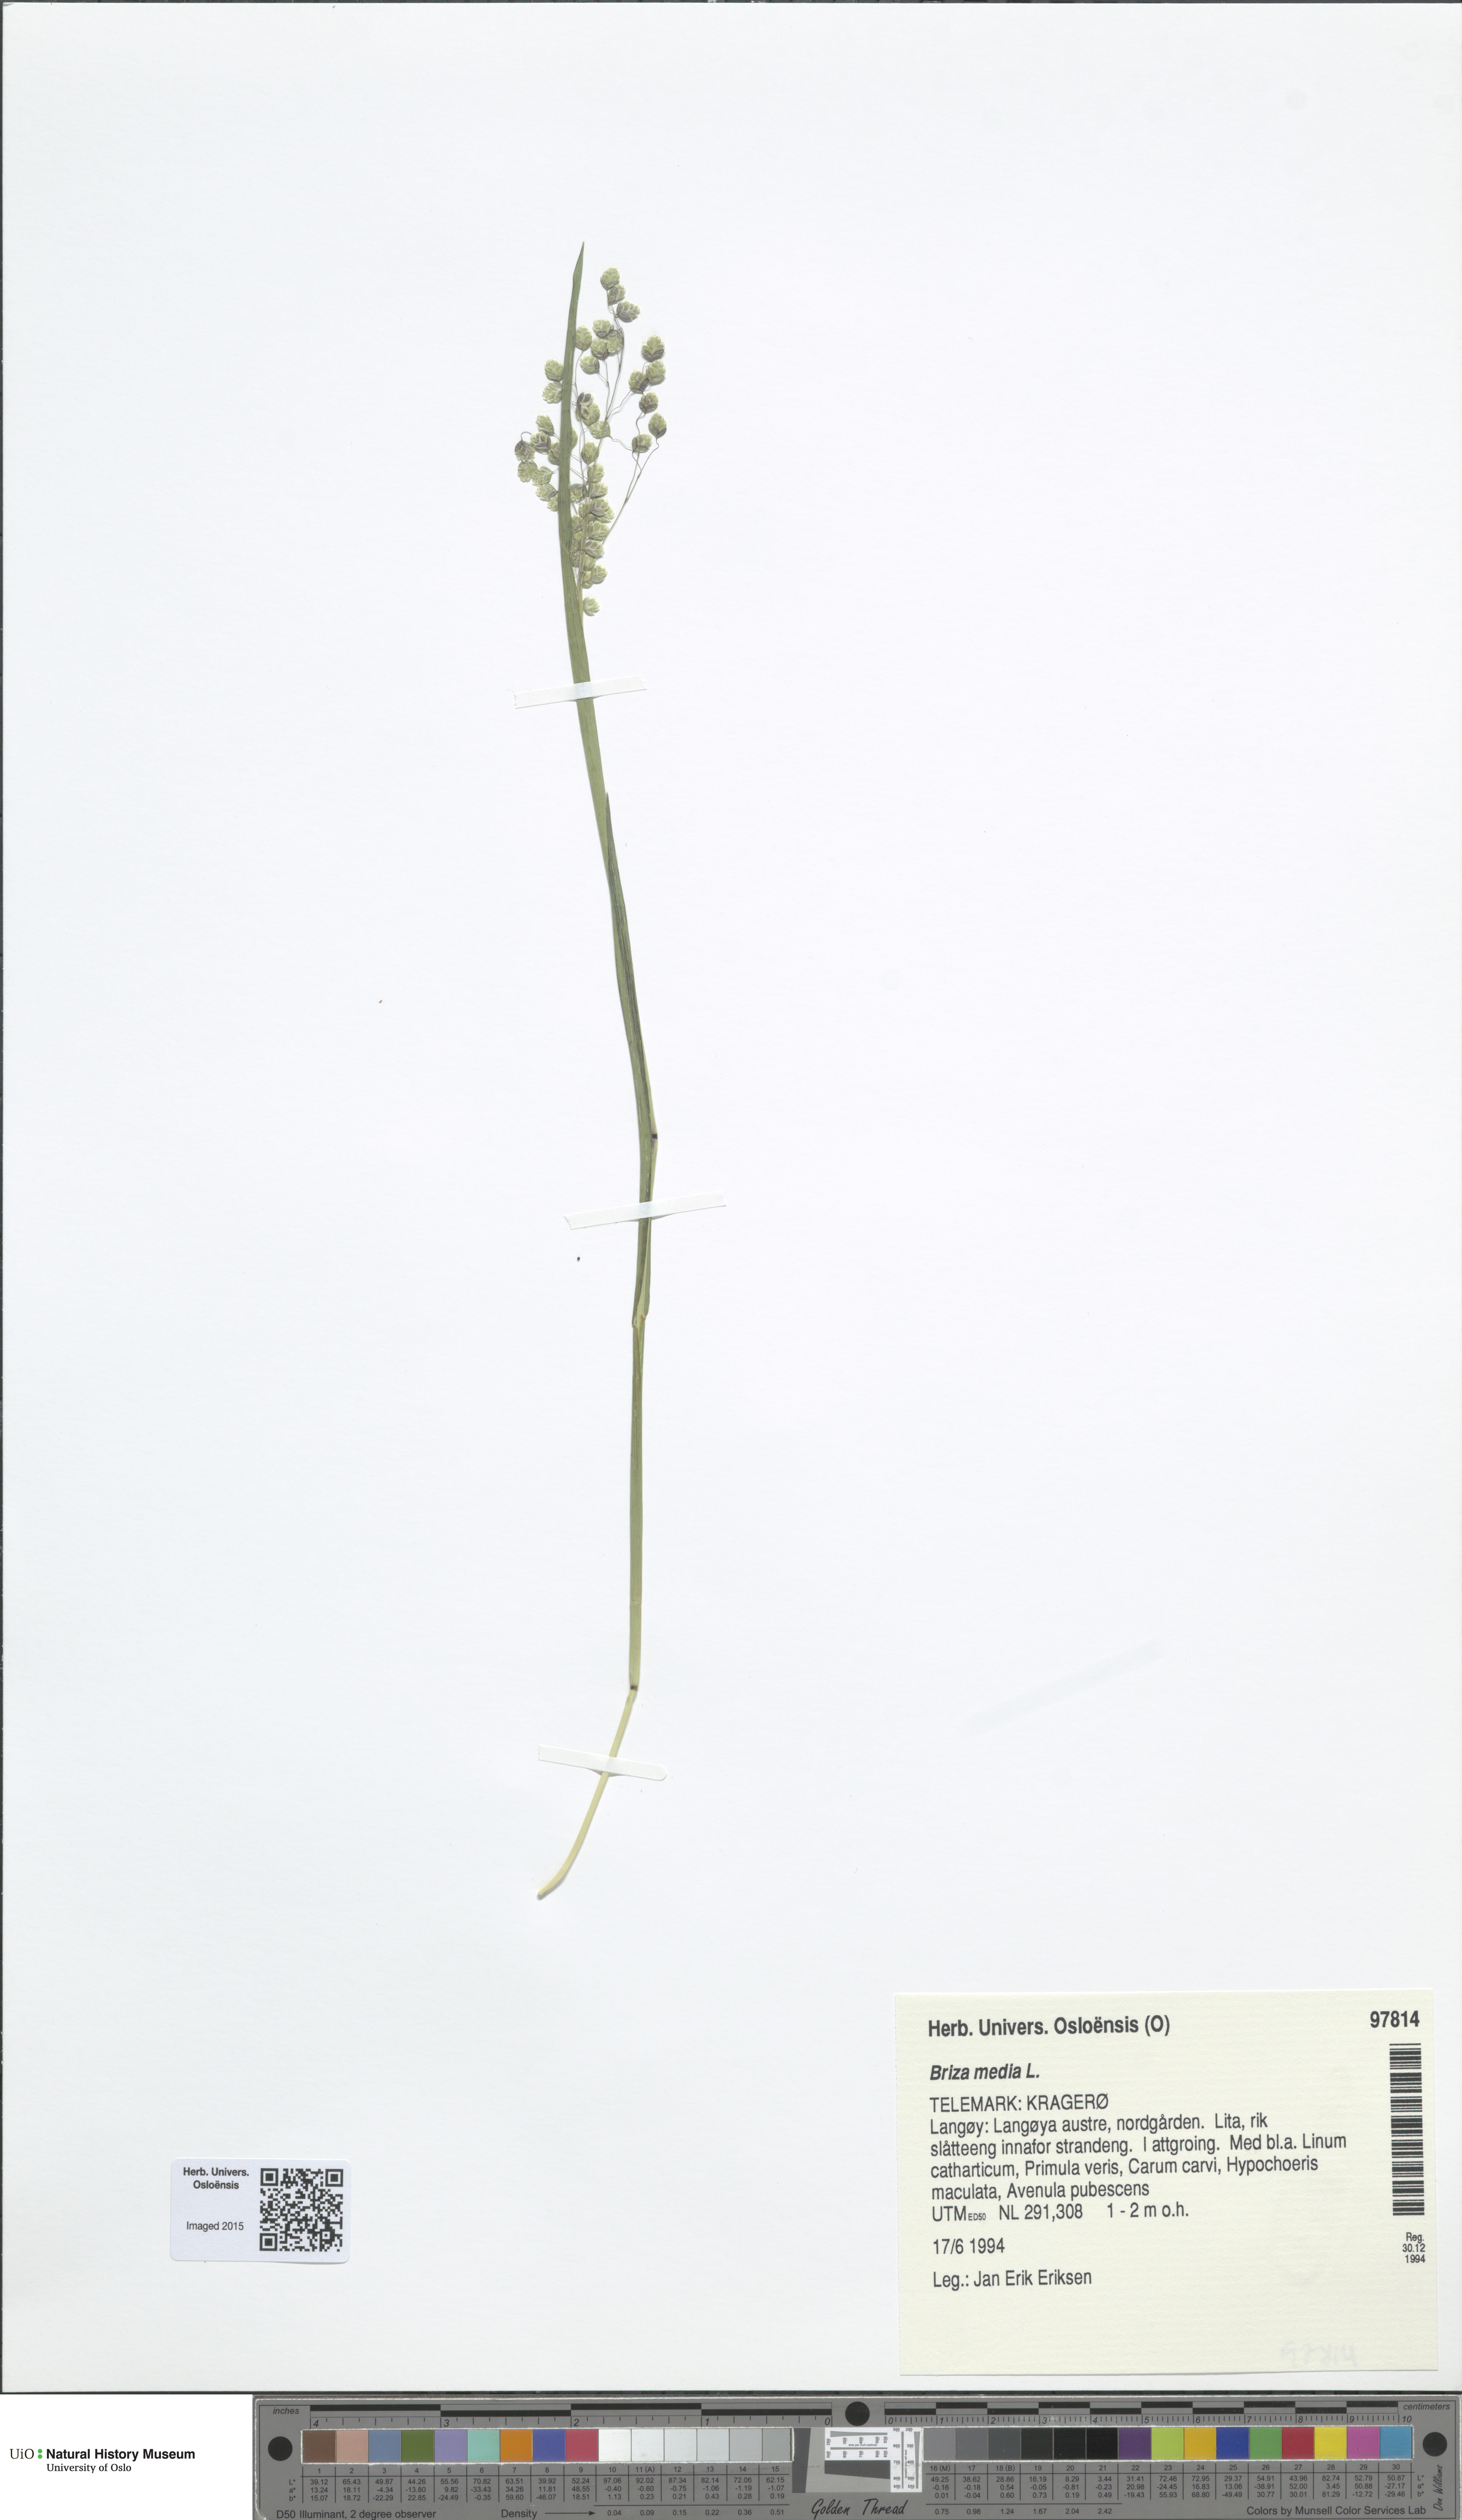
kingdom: Plantae
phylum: Tracheophyta
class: Liliopsida
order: Poales
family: Poaceae
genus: Briza
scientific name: Briza media
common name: Quaking grass
